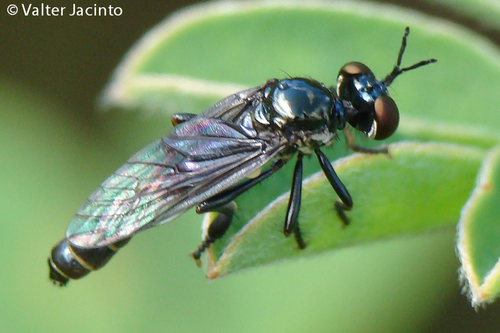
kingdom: Animalia
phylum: Arthropoda
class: Insecta
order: Diptera
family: Asilidae
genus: Dioctria
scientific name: Dioctria
